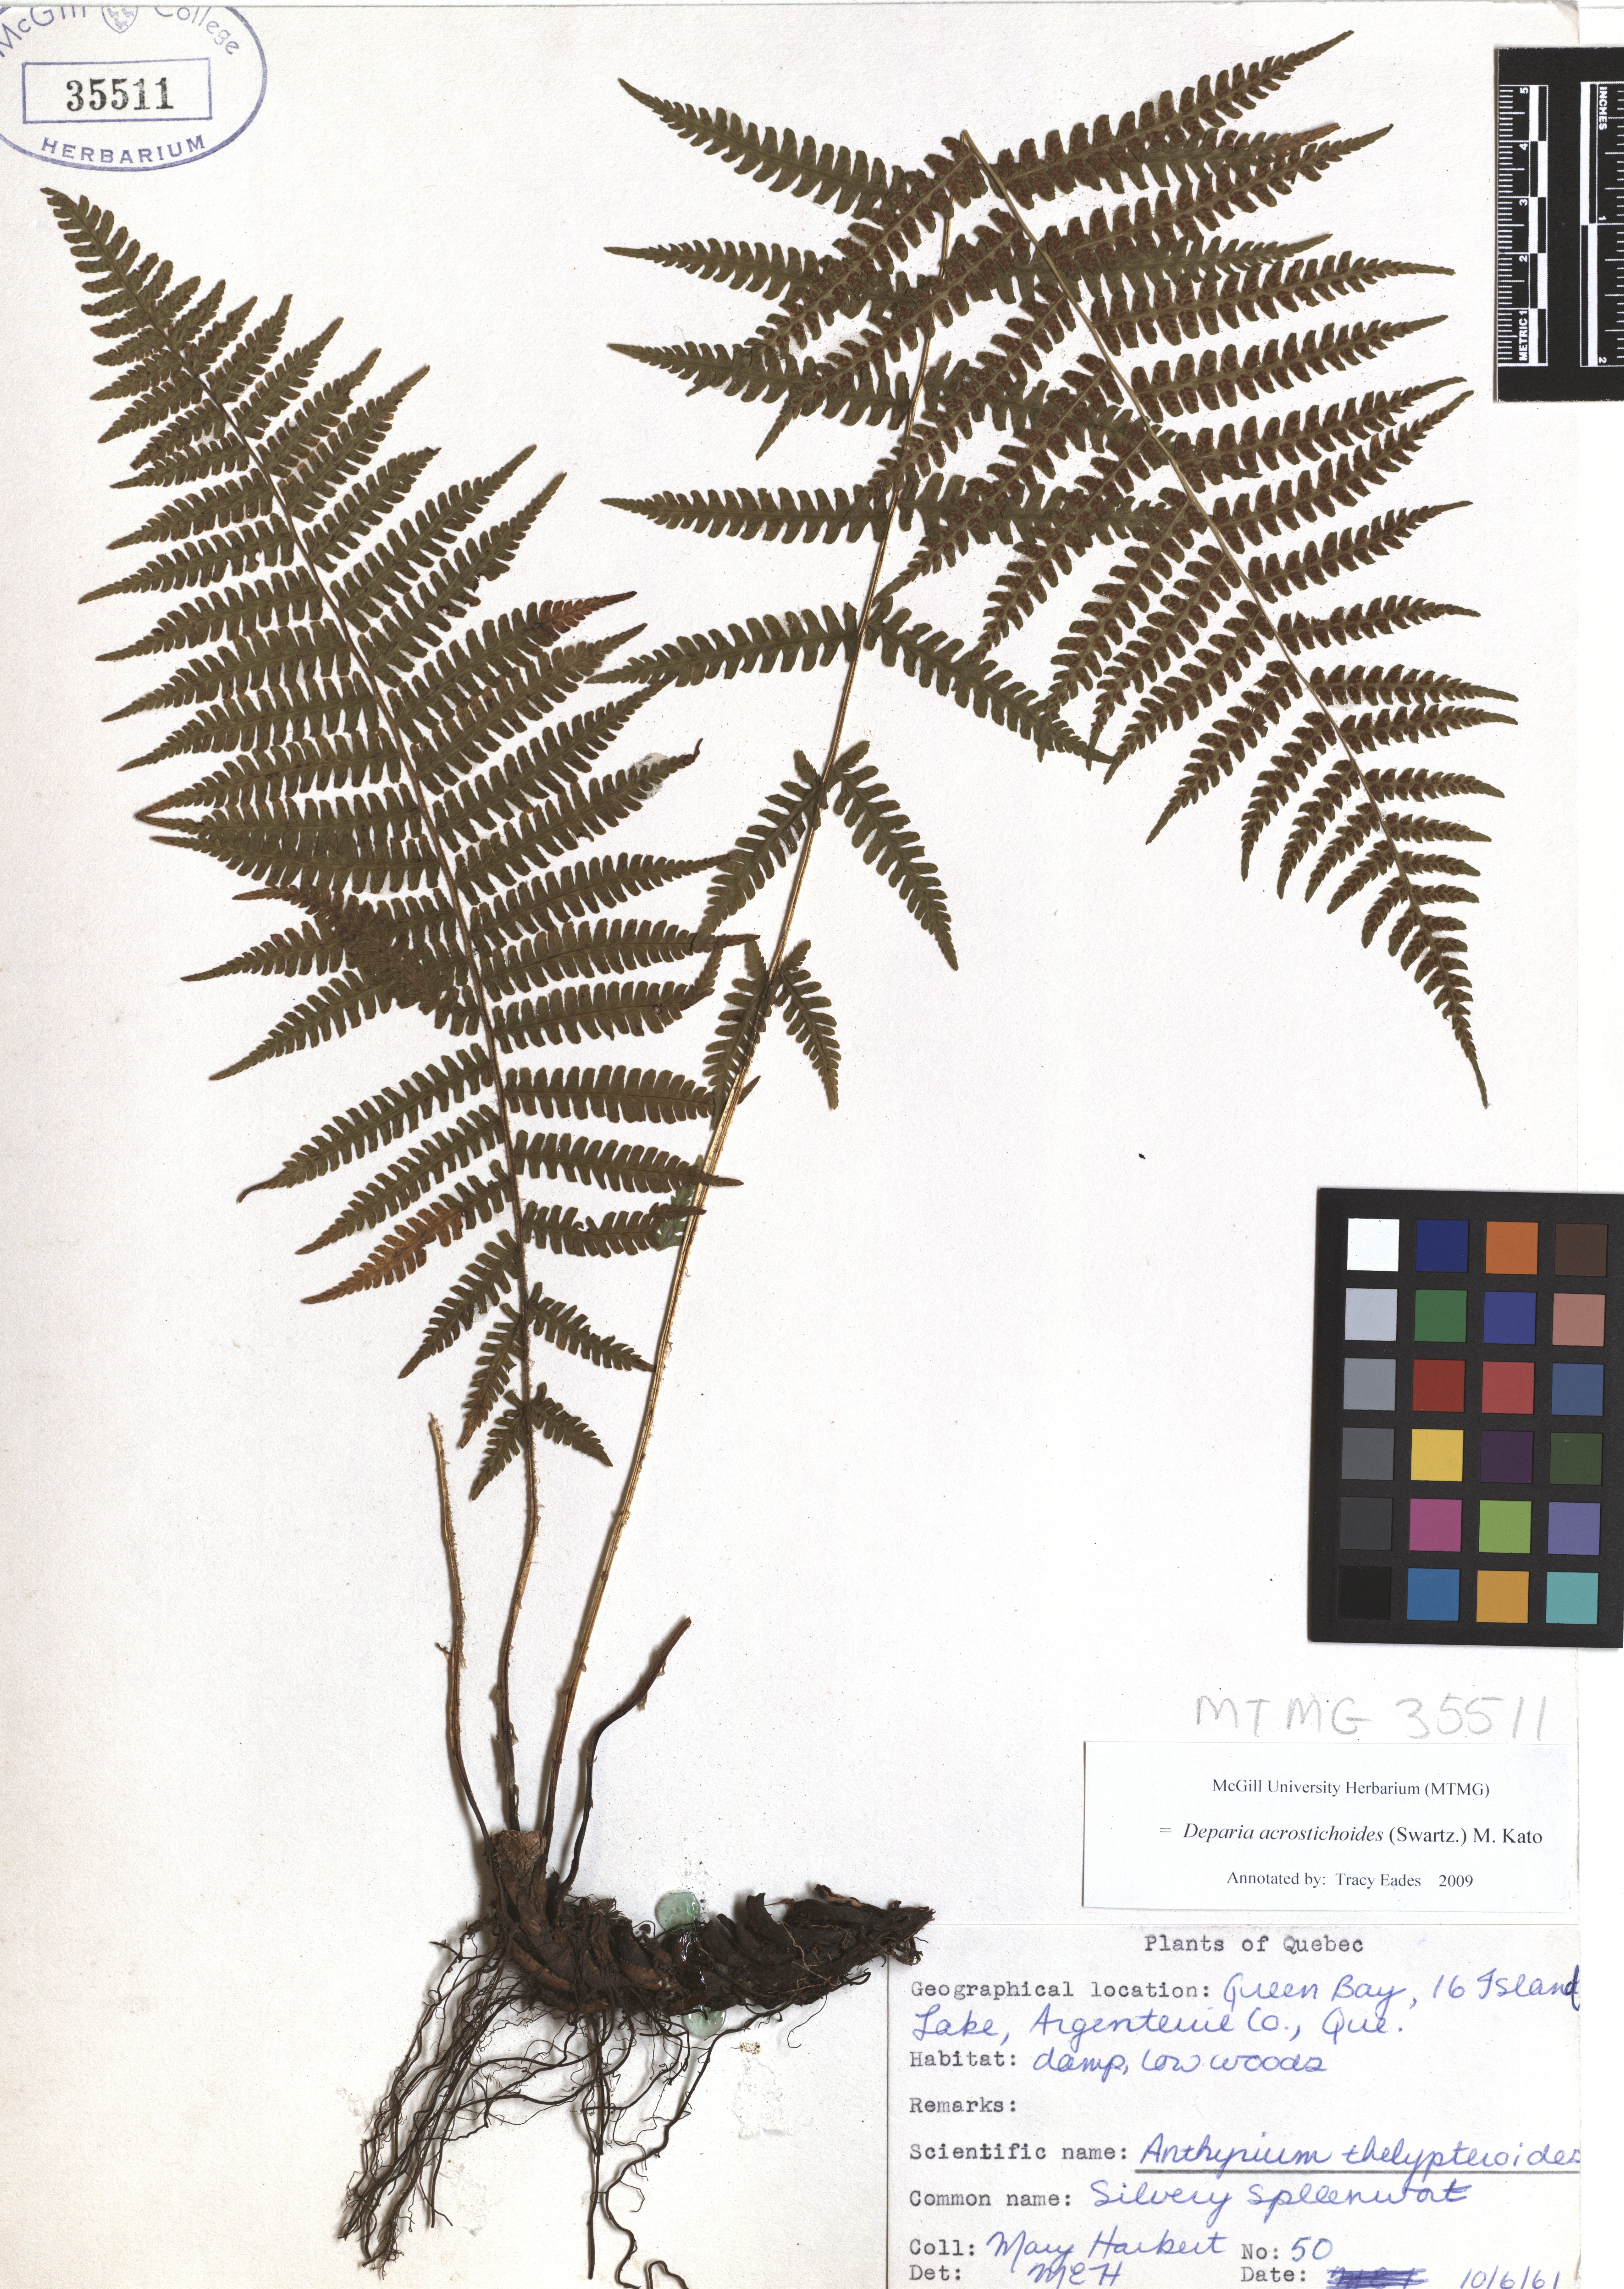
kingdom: Plantae
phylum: Tracheophyta
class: Polypodiopsida
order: Polypodiales
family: Athyriaceae
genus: Deparia
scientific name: Deparia acrostichoides
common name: Silver false spleenwort
